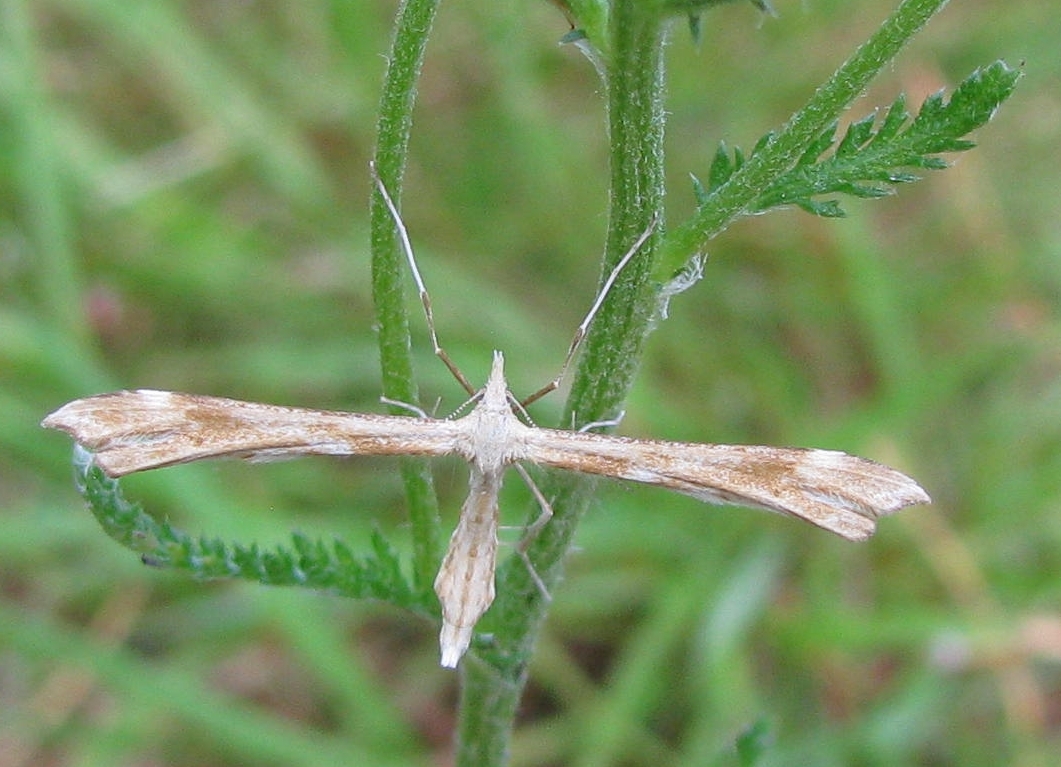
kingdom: Animalia
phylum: Arthropoda
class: Insecta
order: Lepidoptera
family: Pterophoridae
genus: Gillmeria
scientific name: Gillmeria pallidactyla
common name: Yarrow plume
